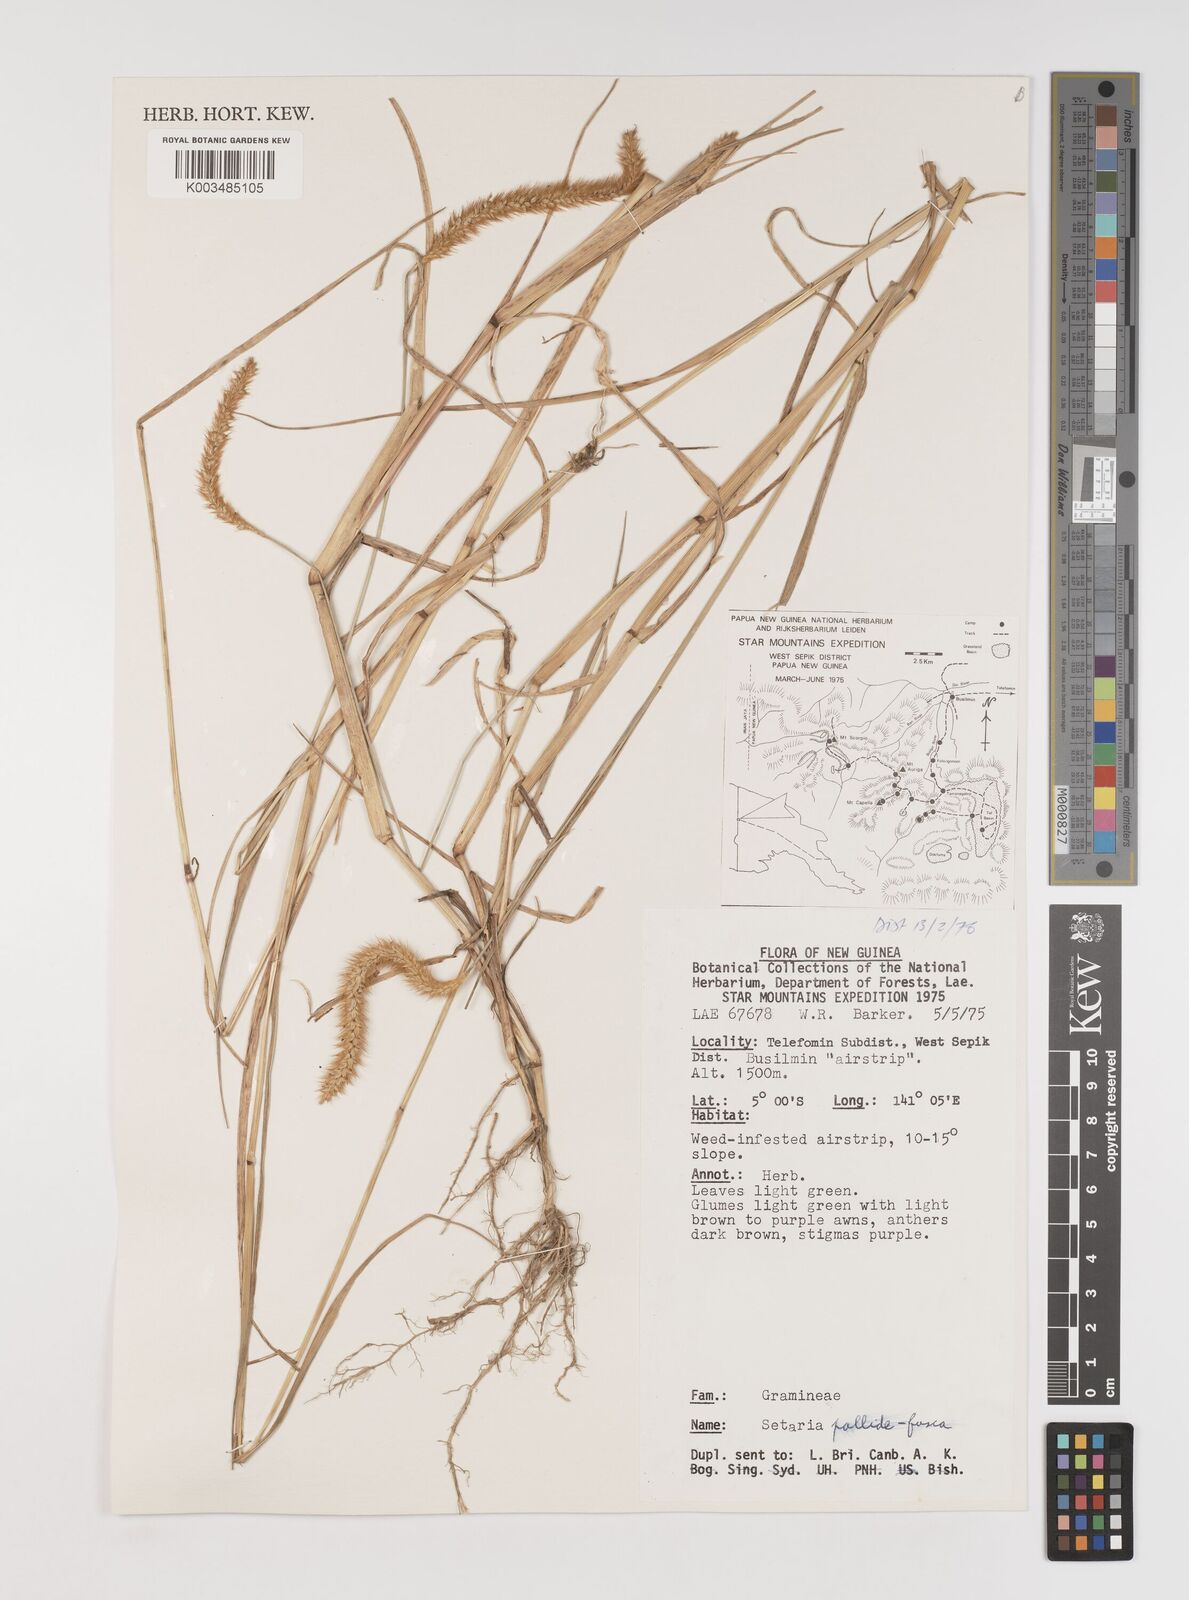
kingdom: Plantae
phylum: Tracheophyta
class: Liliopsida
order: Poales
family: Poaceae
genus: Setaria
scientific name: Setaria parviflora
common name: Knotroot bristle-grass
